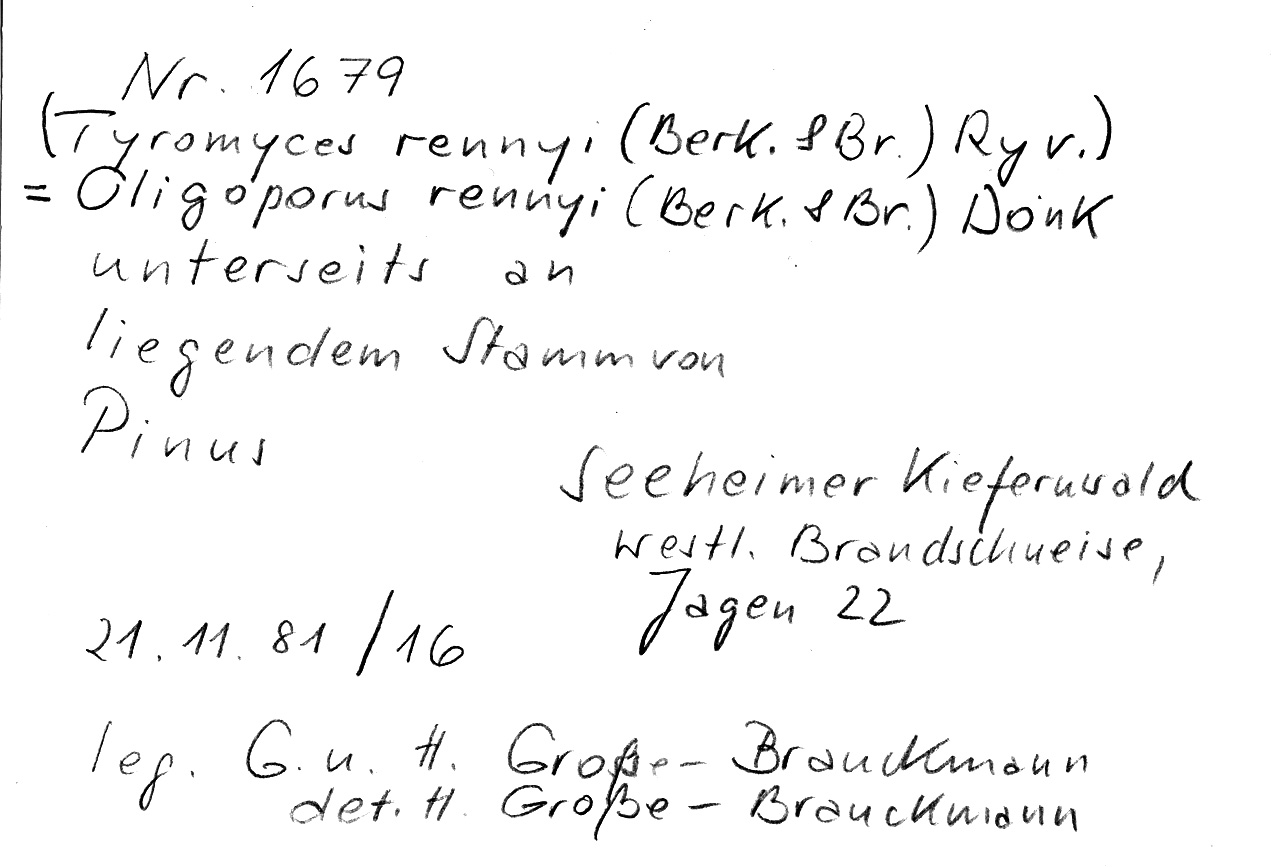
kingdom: Plantae
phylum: Tracheophyta
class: Pinopsida
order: Pinales
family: Pinaceae
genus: Pinus
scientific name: Pinus
